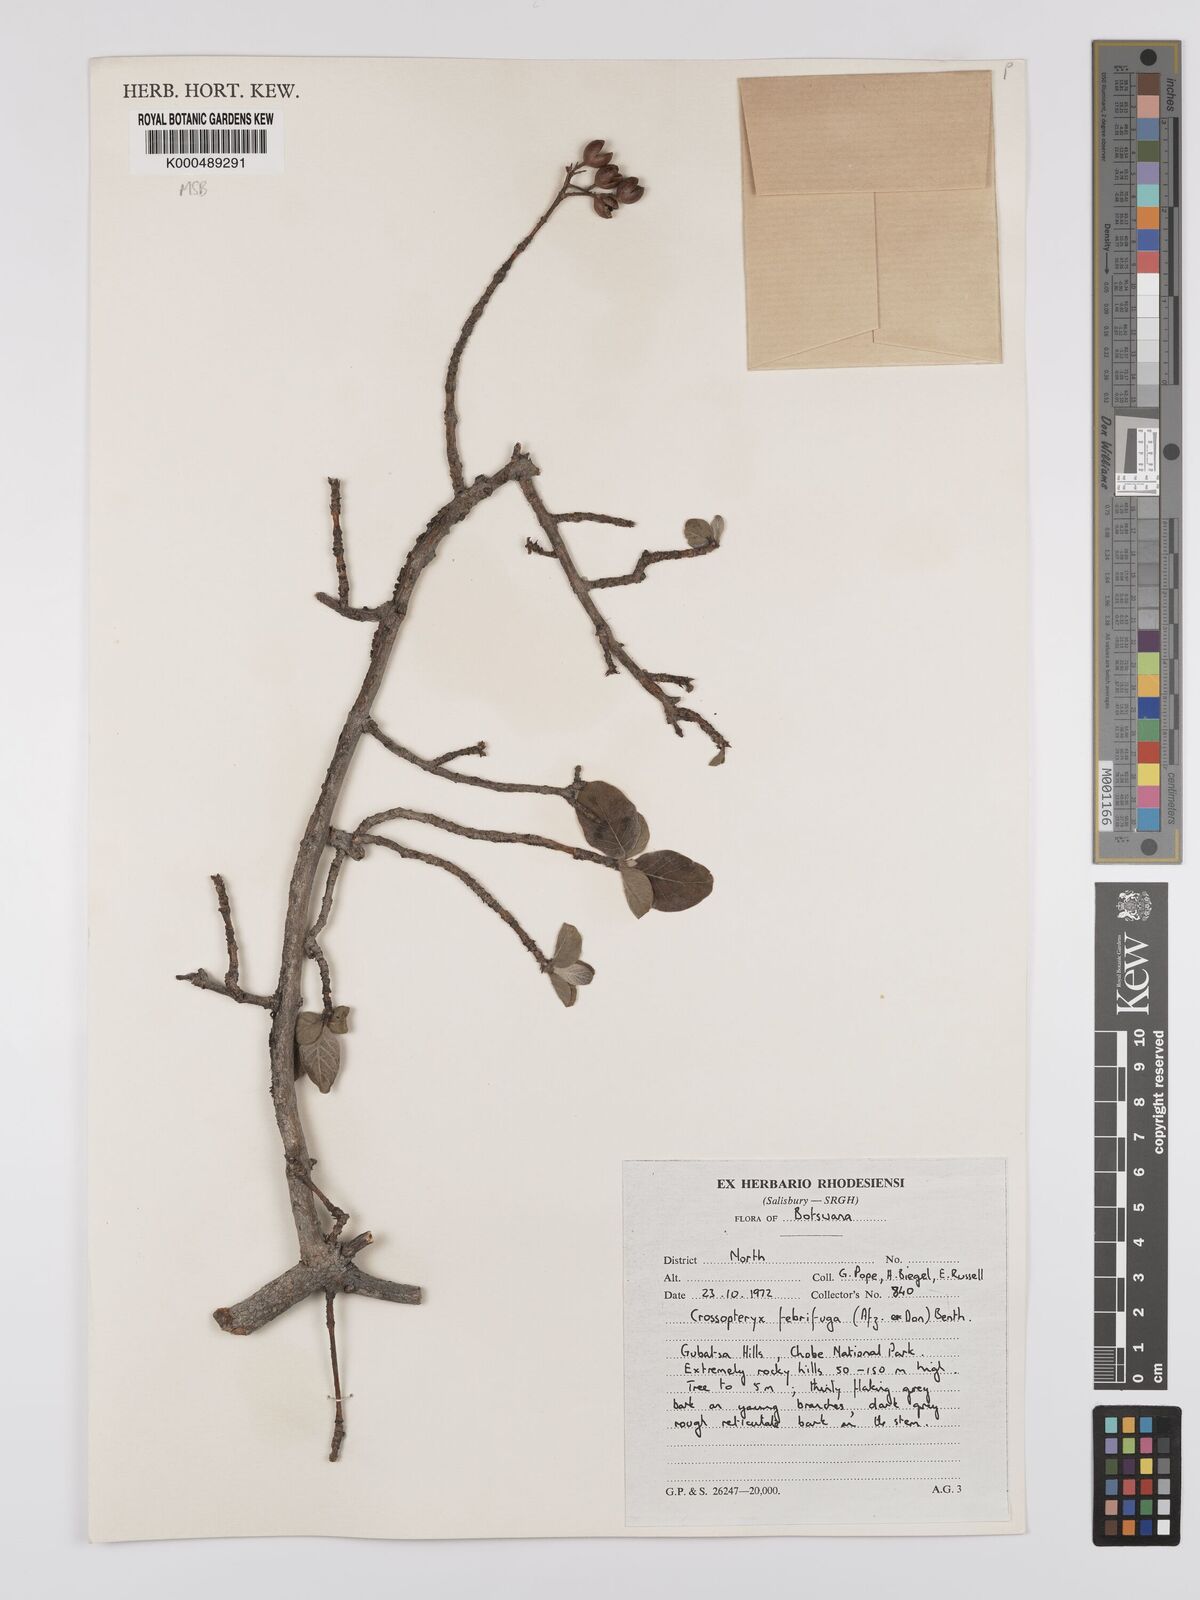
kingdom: Plantae
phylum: Tracheophyta
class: Magnoliopsida
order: Gentianales
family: Rubiaceae
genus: Crossopteryx
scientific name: Crossopteryx febrifuga
